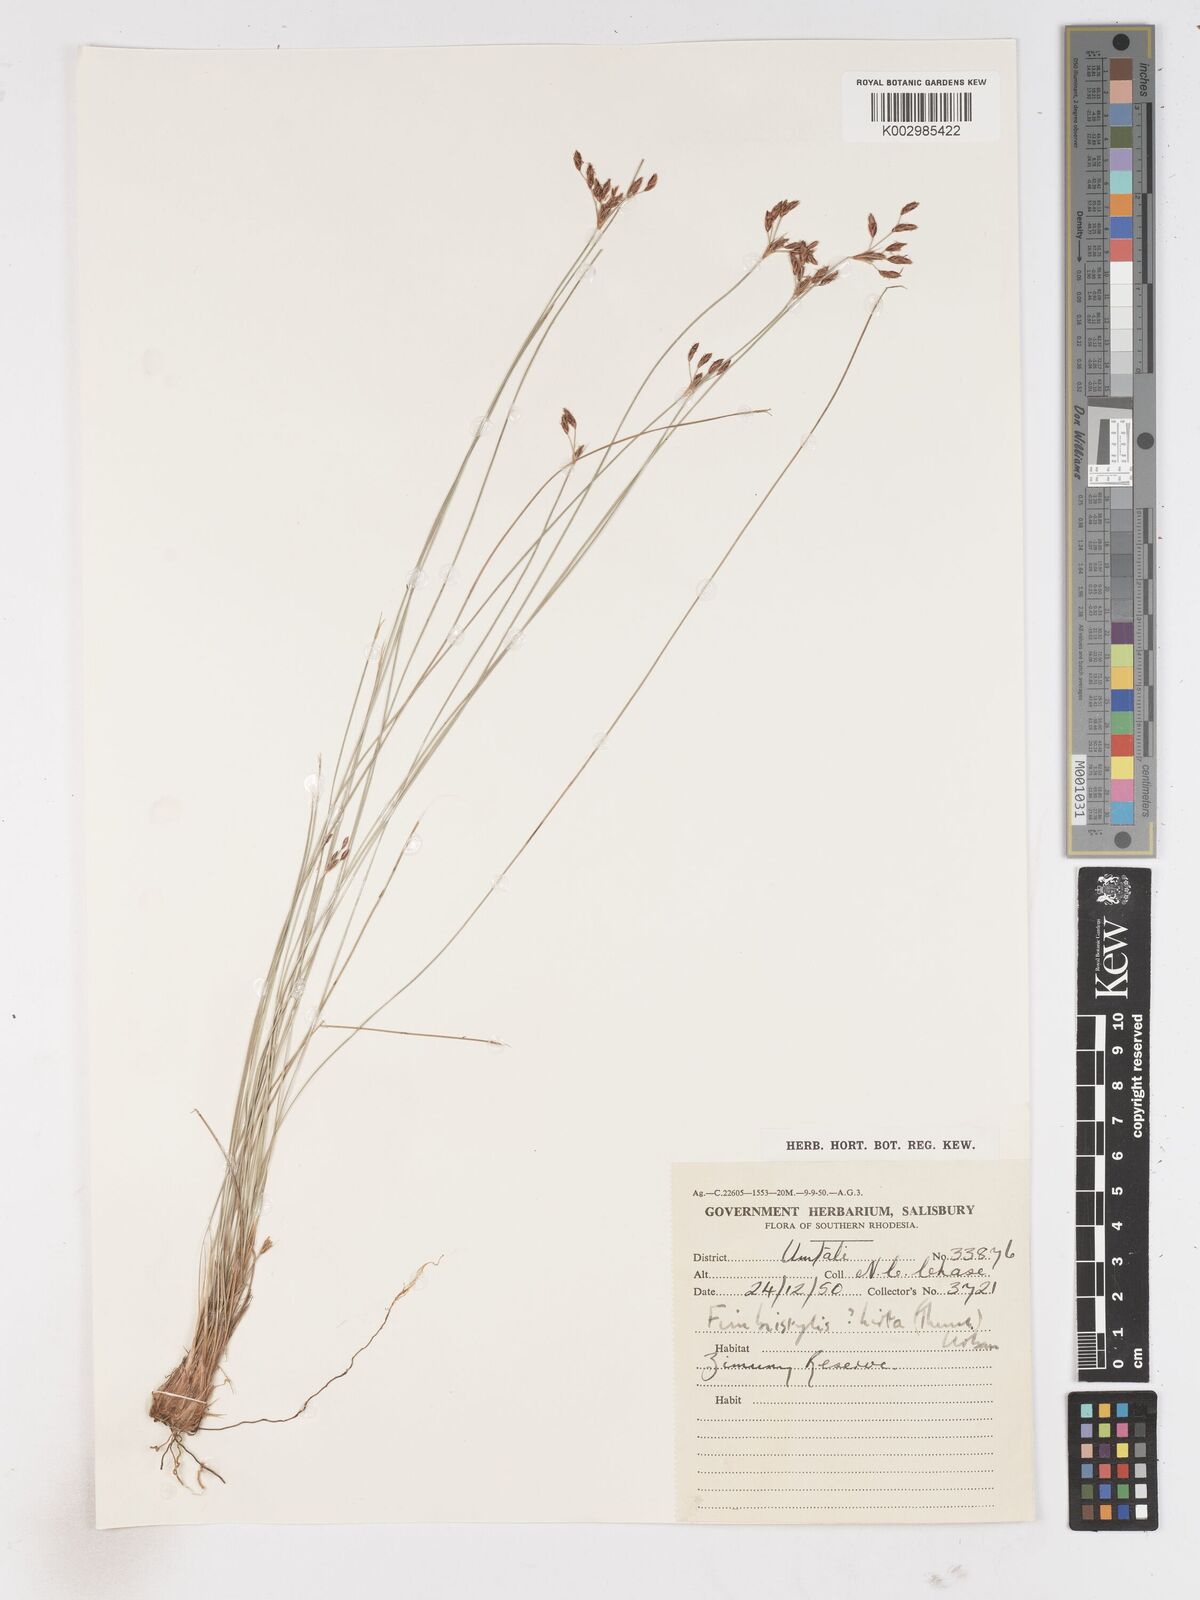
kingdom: Plantae
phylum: Tracheophyta
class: Liliopsida
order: Poales
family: Cyperaceae
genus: Fimbristylis
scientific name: Fimbristylis
